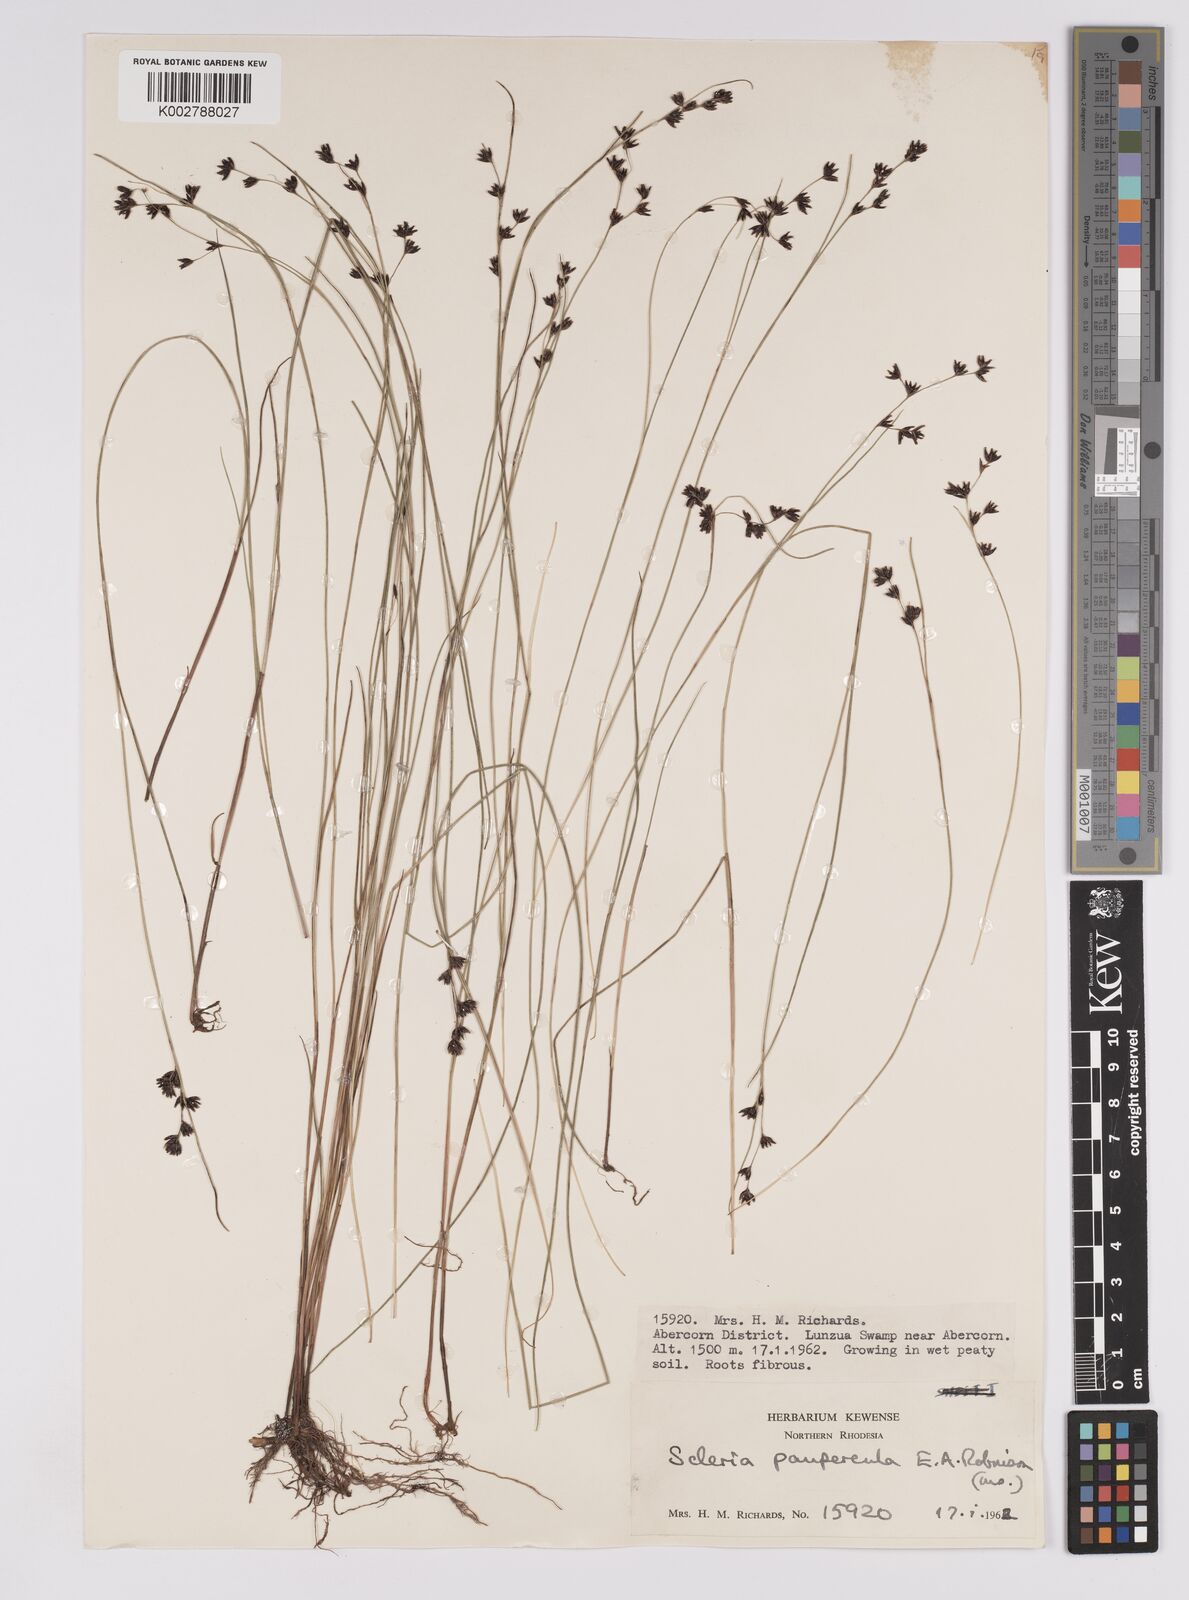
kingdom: Plantae
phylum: Tracheophyta
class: Liliopsida
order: Poales
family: Cyperaceae
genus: Scleria
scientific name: Scleria paupercula
